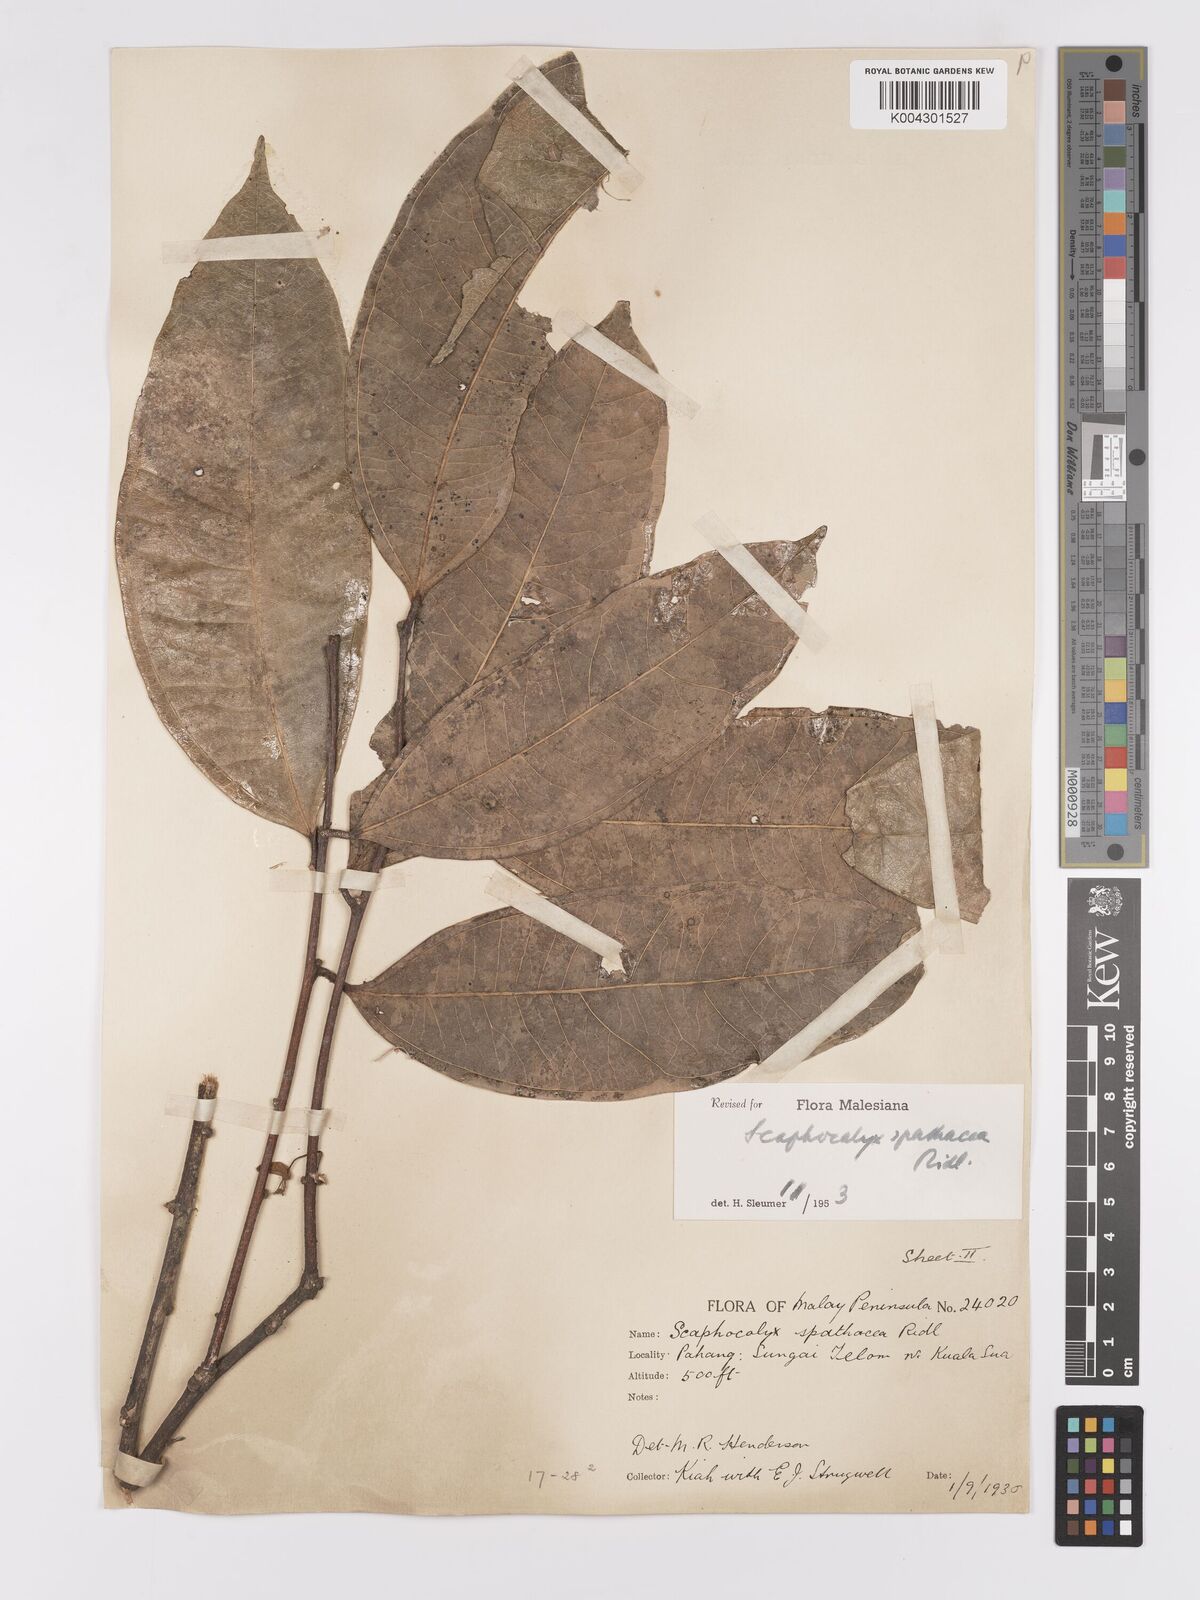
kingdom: Plantae
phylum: Tracheophyta
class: Magnoliopsida
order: Malpighiales
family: Achariaceae
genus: Scaphocalyx
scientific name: Scaphocalyx spathacea
